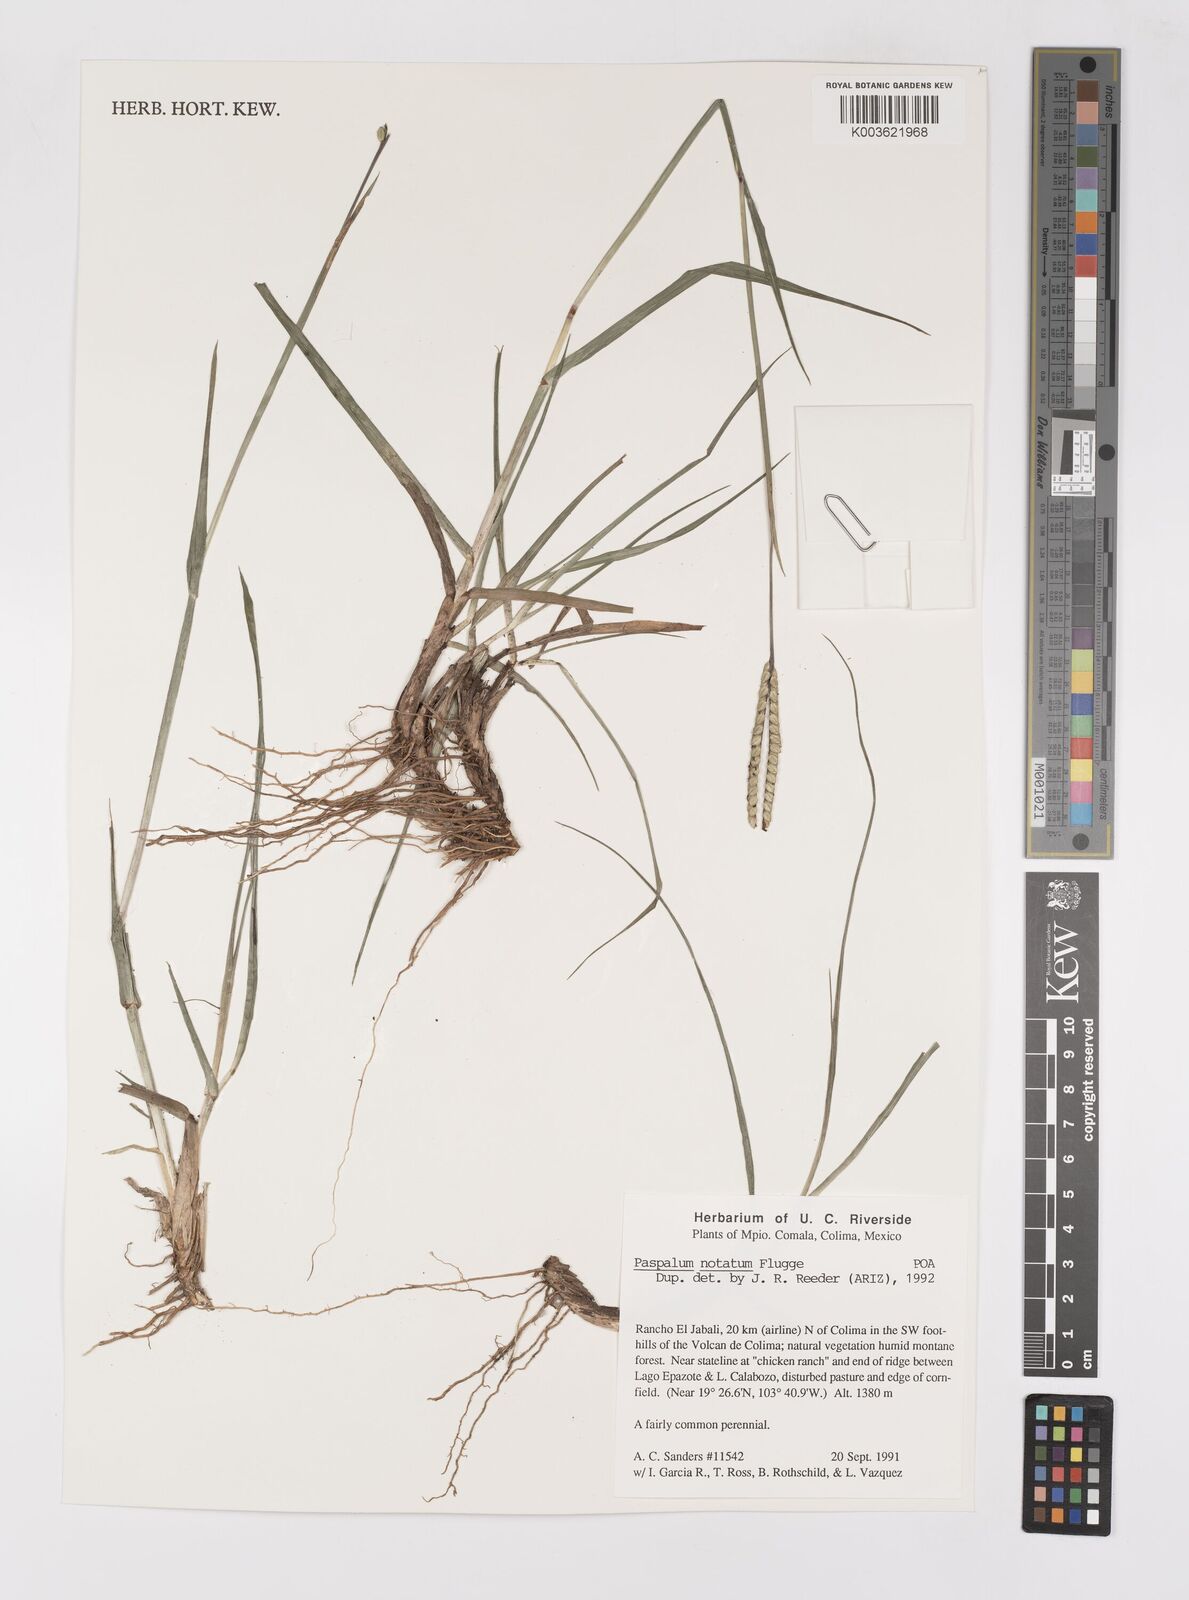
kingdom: Plantae
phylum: Tracheophyta
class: Liliopsida
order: Poales
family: Poaceae
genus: Paspalum
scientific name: Paspalum notatum
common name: Bahiagrass
